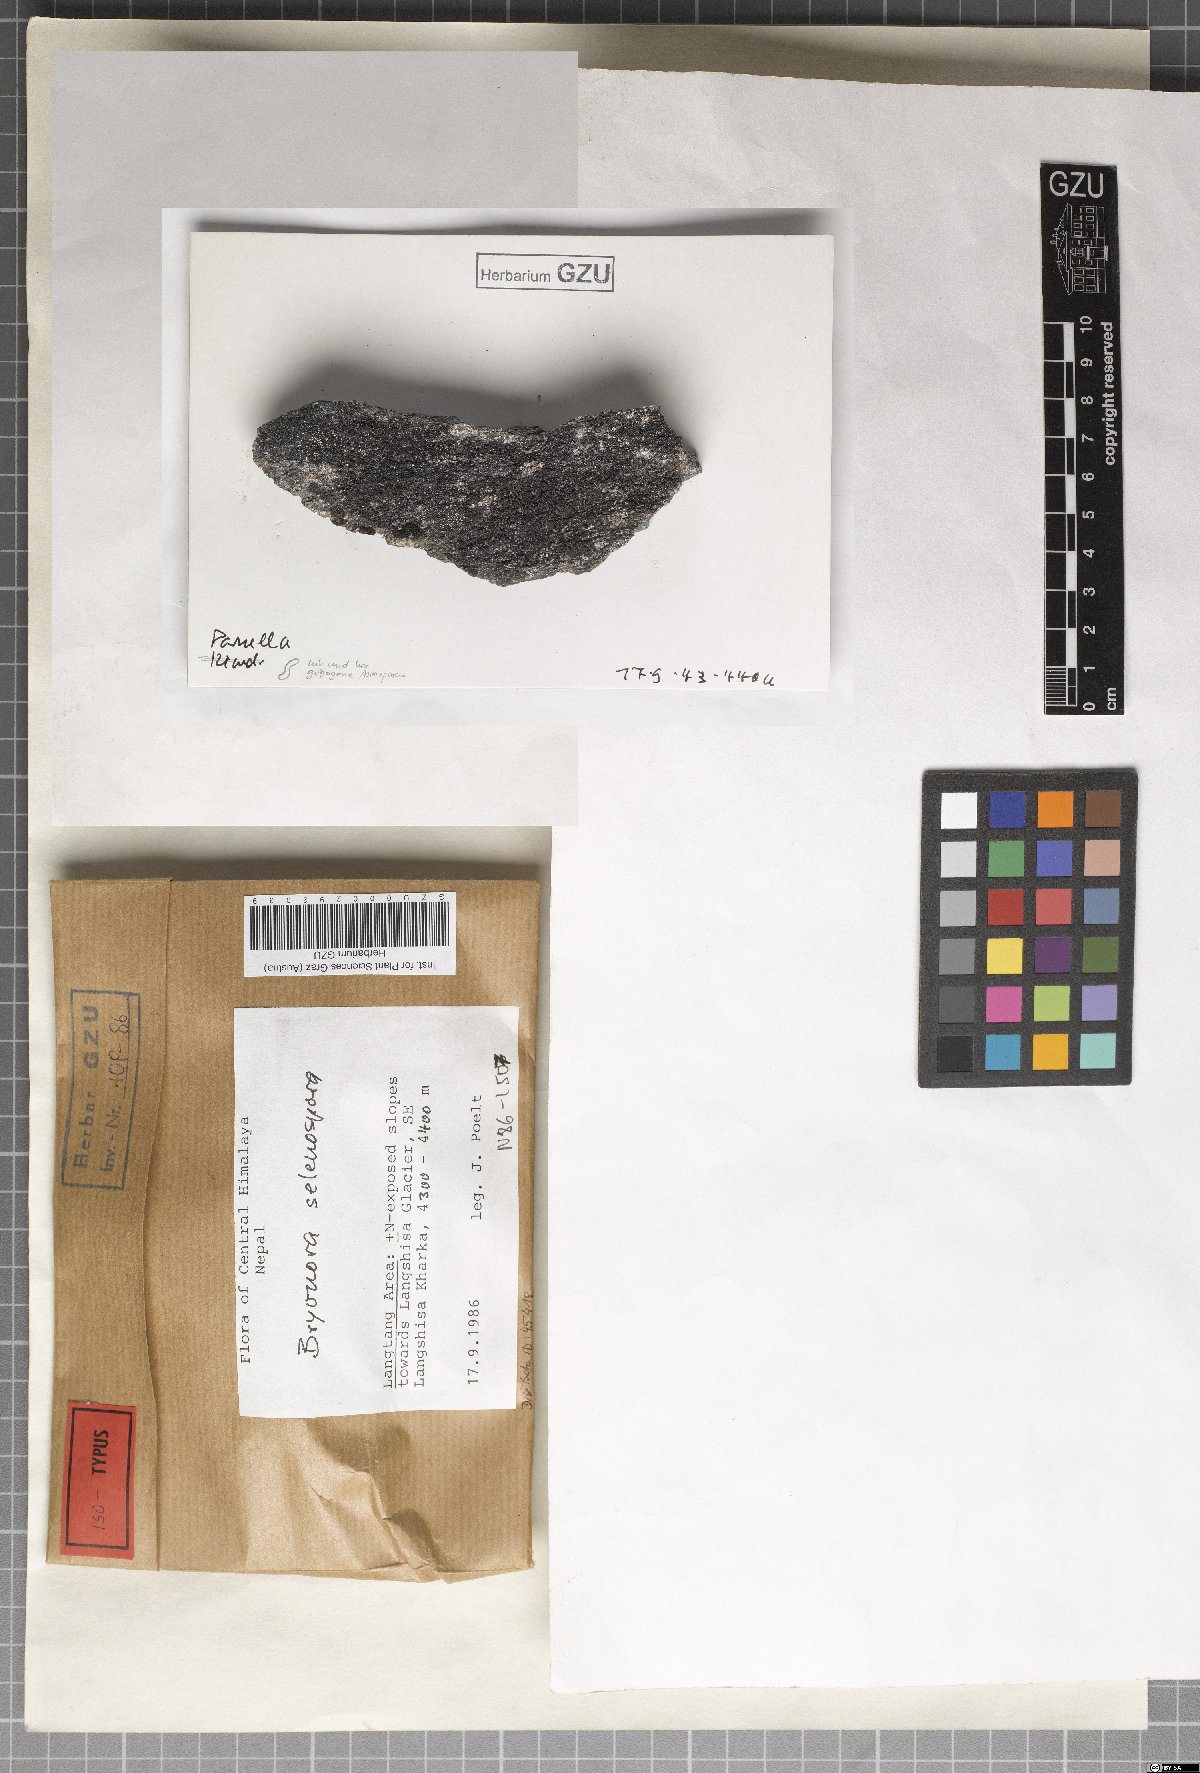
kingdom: Fungi
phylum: Ascomycota
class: Lecanoromycetes
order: Lecanorales
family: Lecanoraceae
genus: Bryodina
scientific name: Bryodina selenospora
